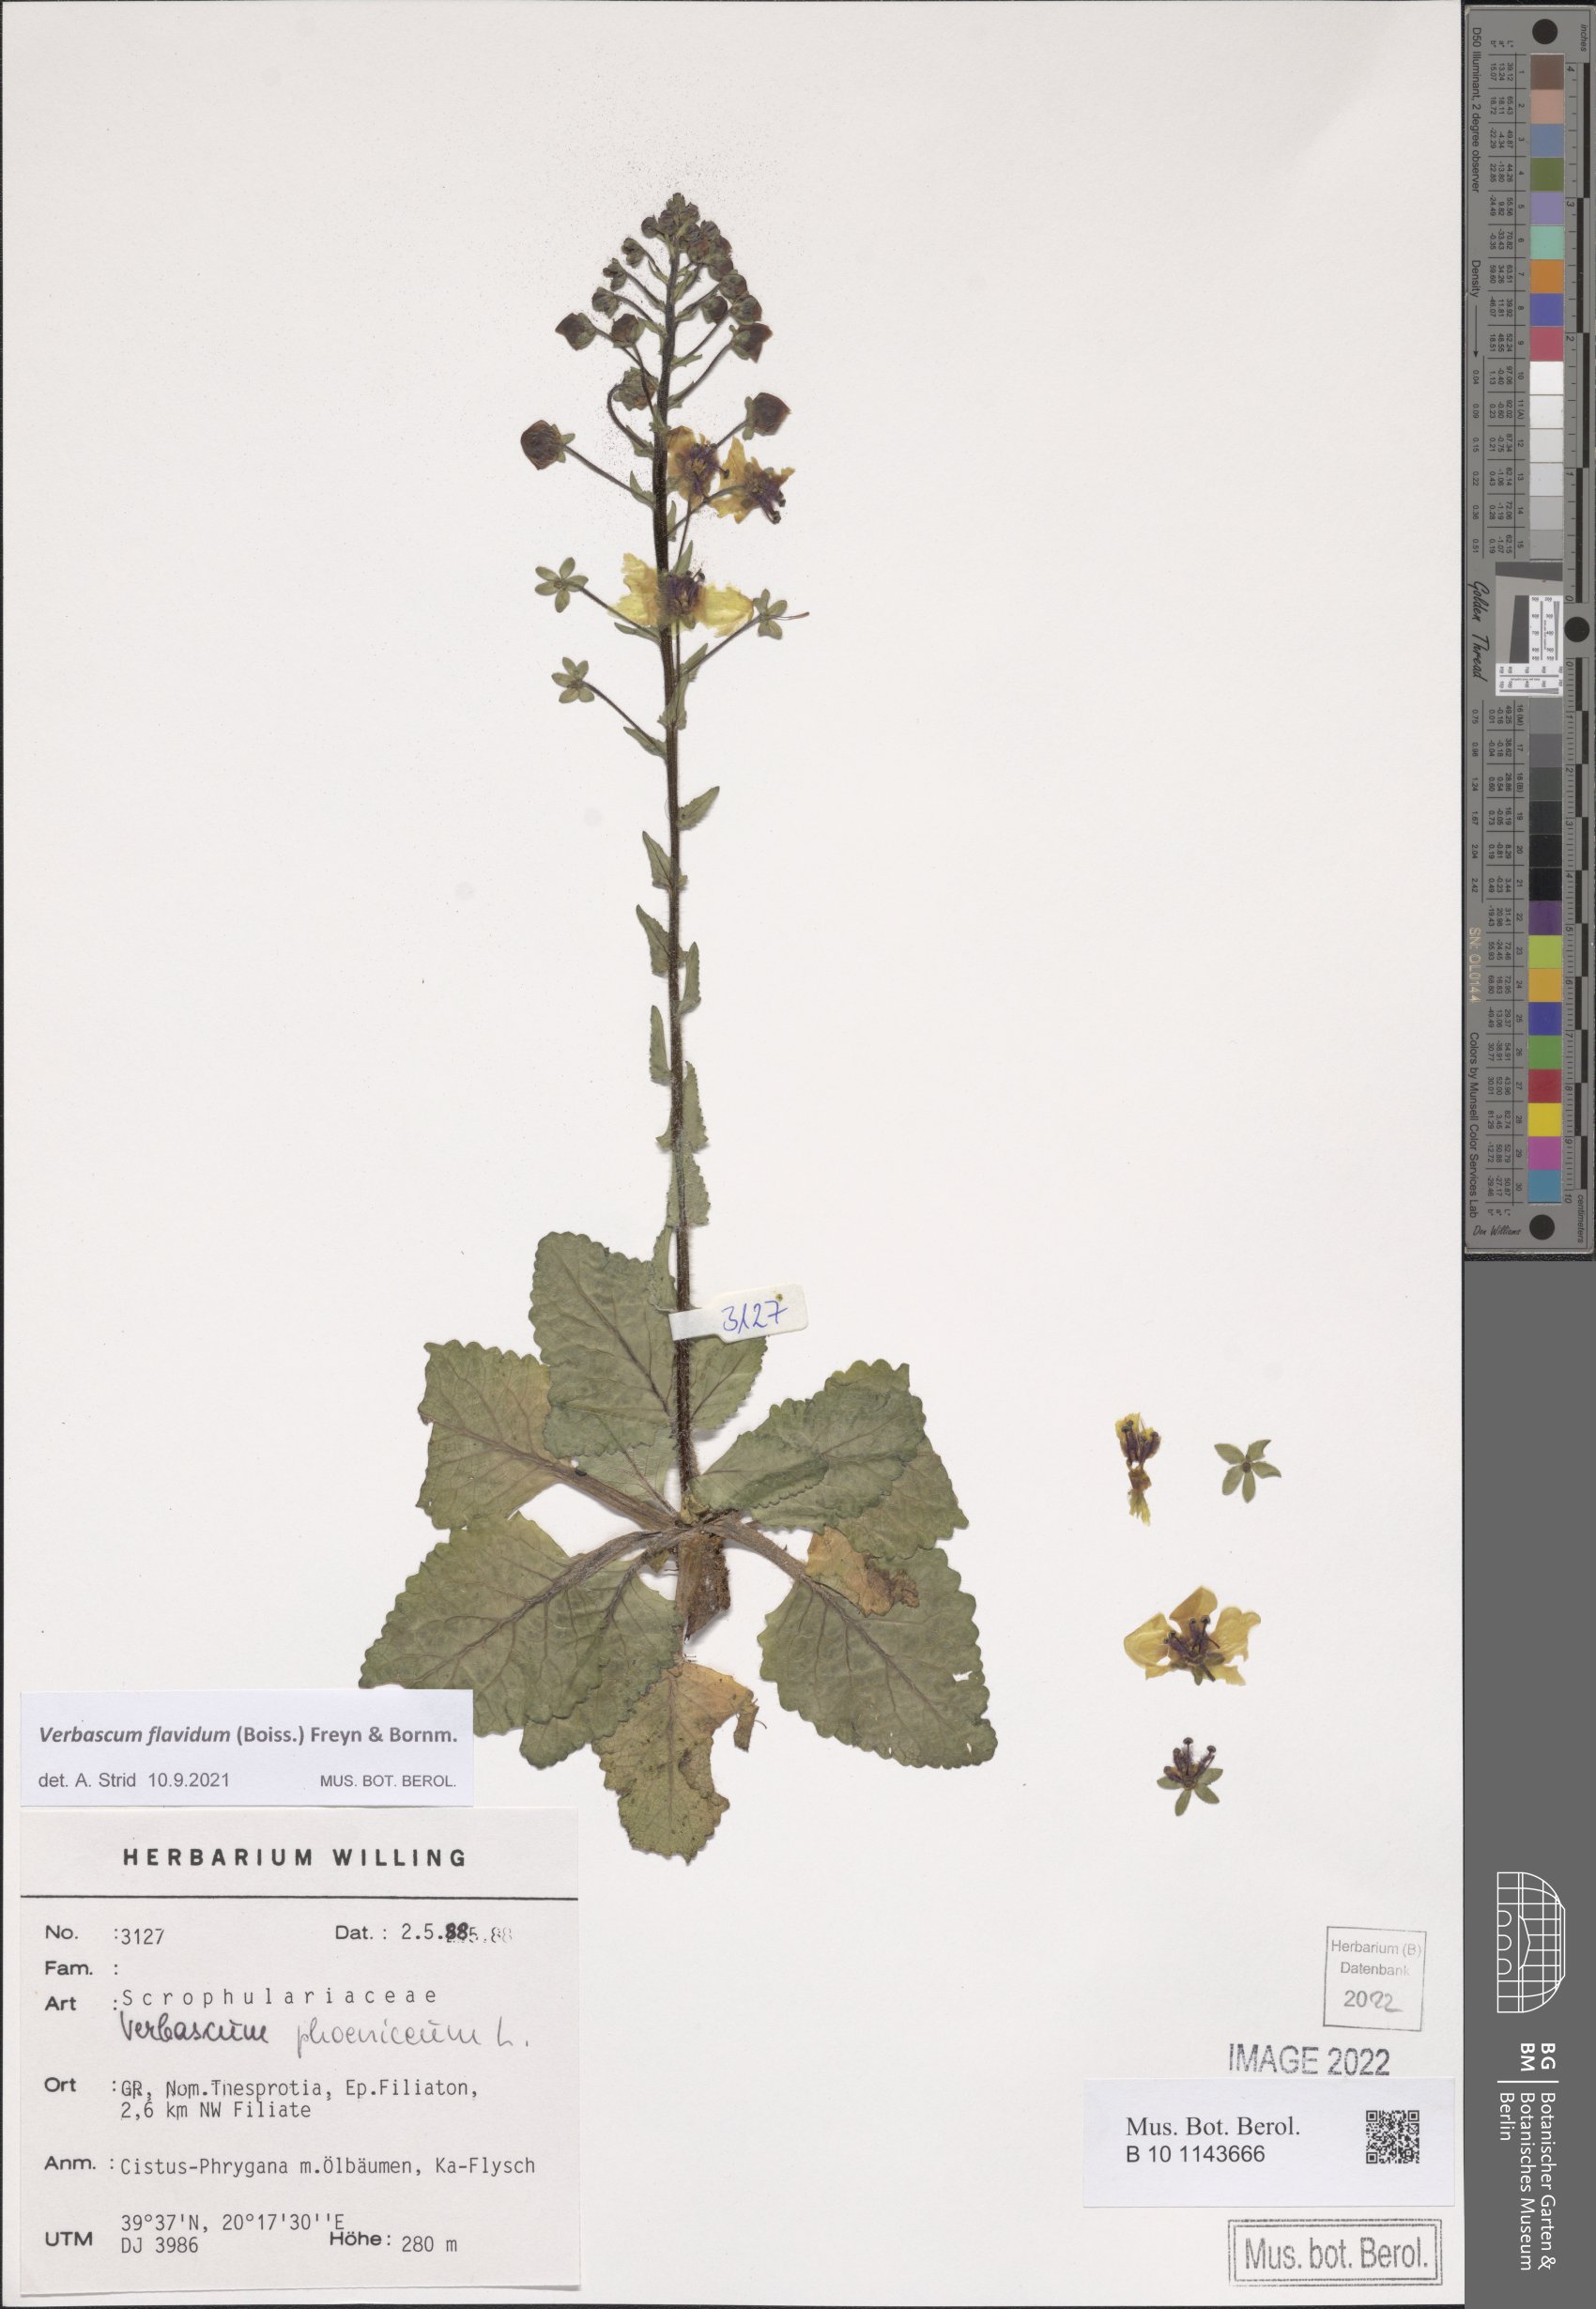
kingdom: Plantae
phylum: Tracheophyta
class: Magnoliopsida
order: Lamiales
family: Scrophulariaceae
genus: Verbascum
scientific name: Verbascum flavidum
